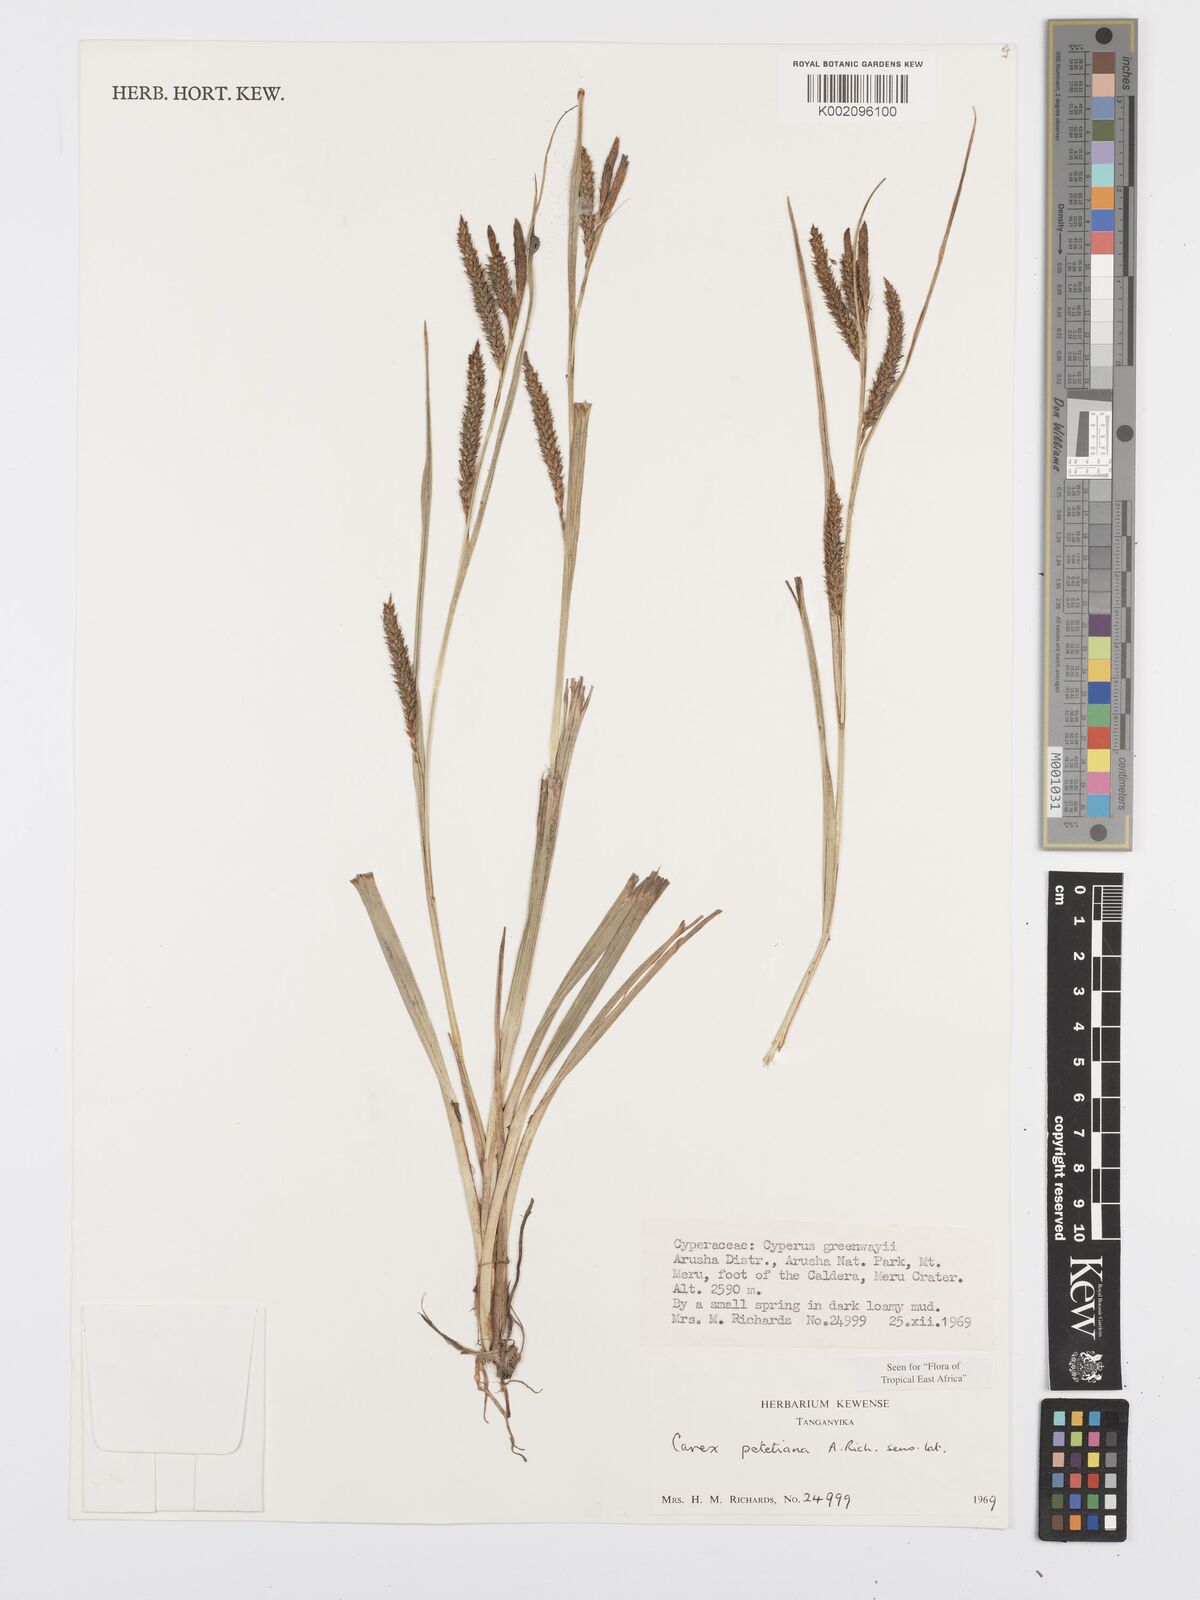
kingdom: Plantae
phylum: Tracheophyta
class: Liliopsida
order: Poales
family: Cyperaceae
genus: Carex
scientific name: Carex petitiana
